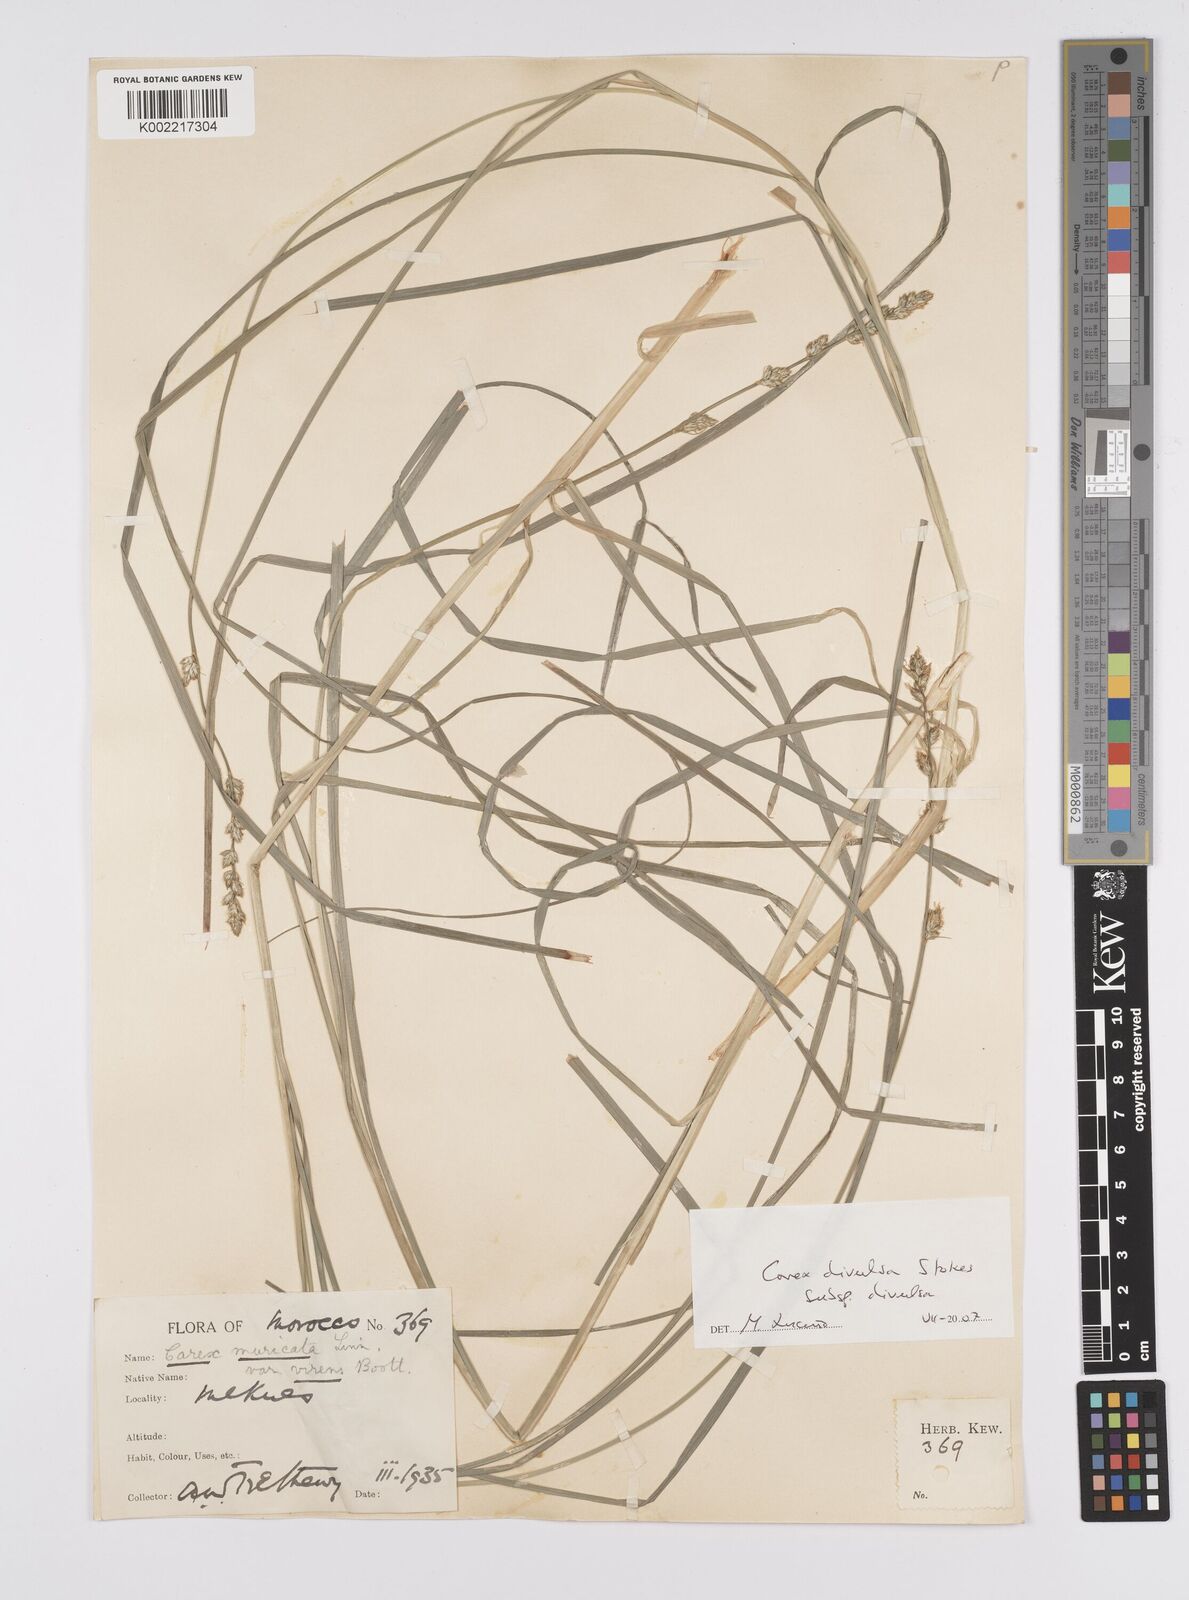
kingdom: Plantae
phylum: Tracheophyta
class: Liliopsida
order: Poales
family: Cyperaceae
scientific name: Cyperaceae
